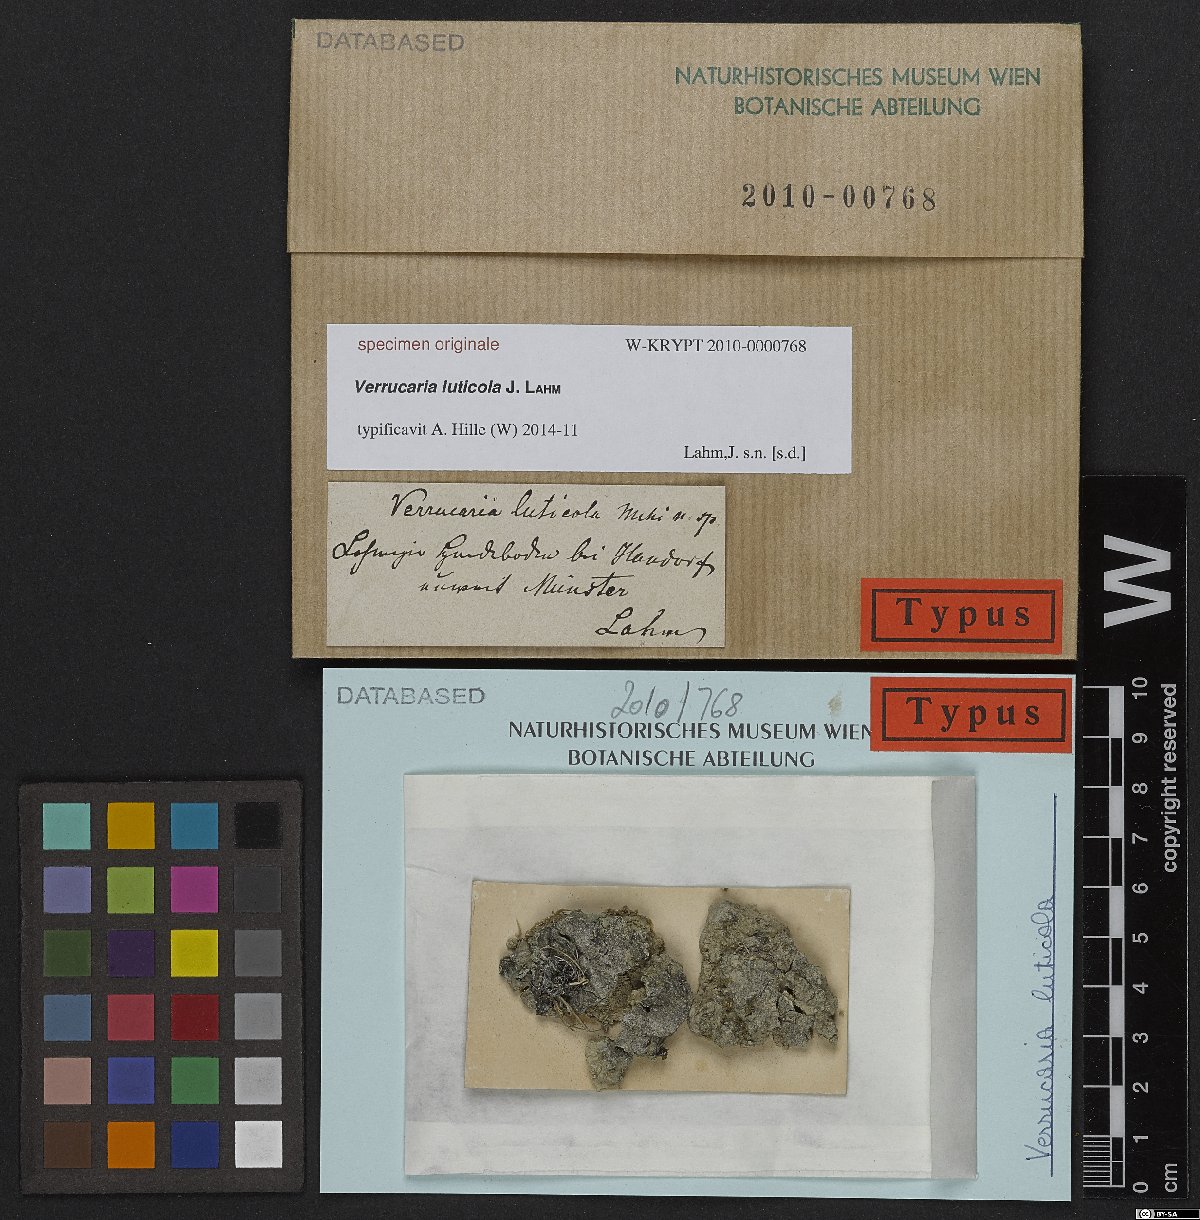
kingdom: Fungi
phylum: Ascomycota
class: Eurotiomycetes
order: Verrucariales
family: Verrucariaceae
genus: Verrucaria
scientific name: Verrucaria
